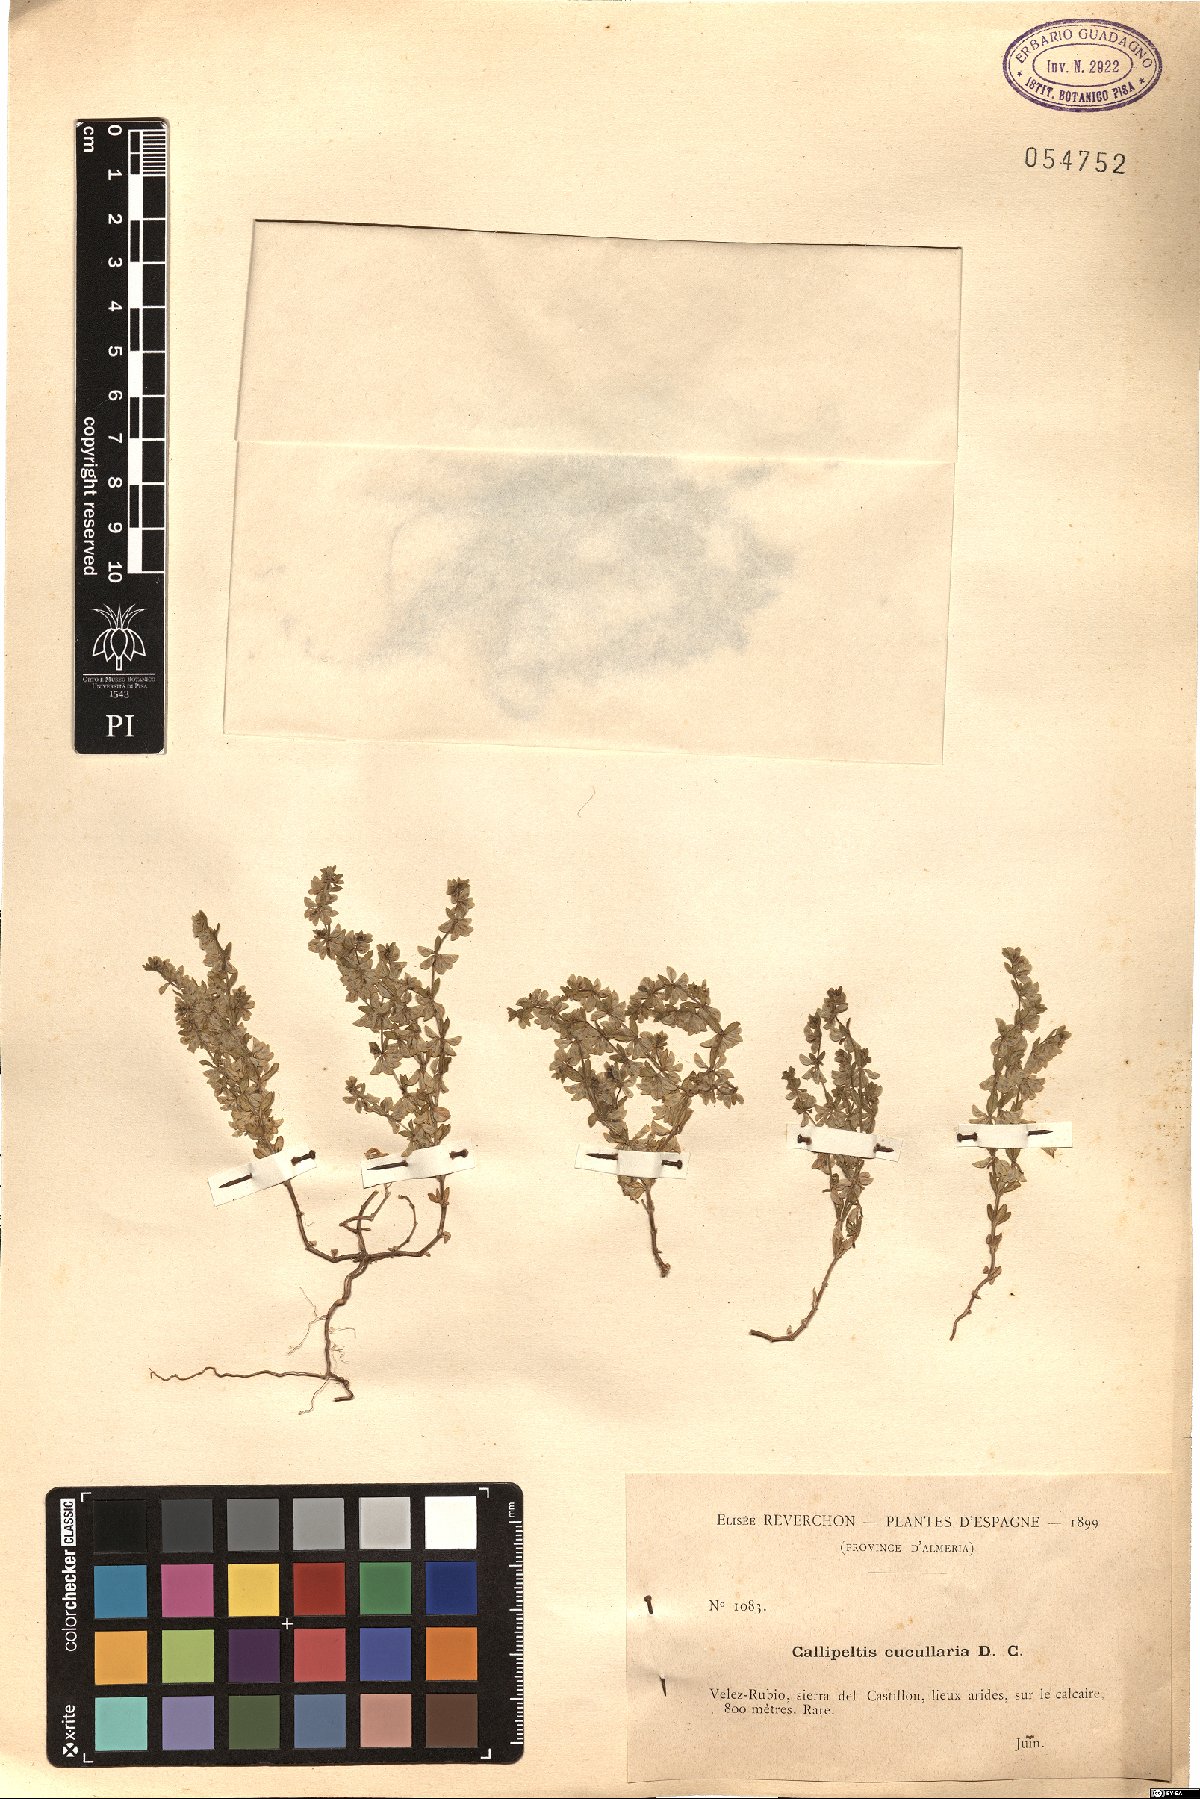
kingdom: Plantae
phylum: Tracheophyta
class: Magnoliopsida
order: Gentianales
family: Rubiaceae
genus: Callipeltis
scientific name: Callipeltis cucullaris
